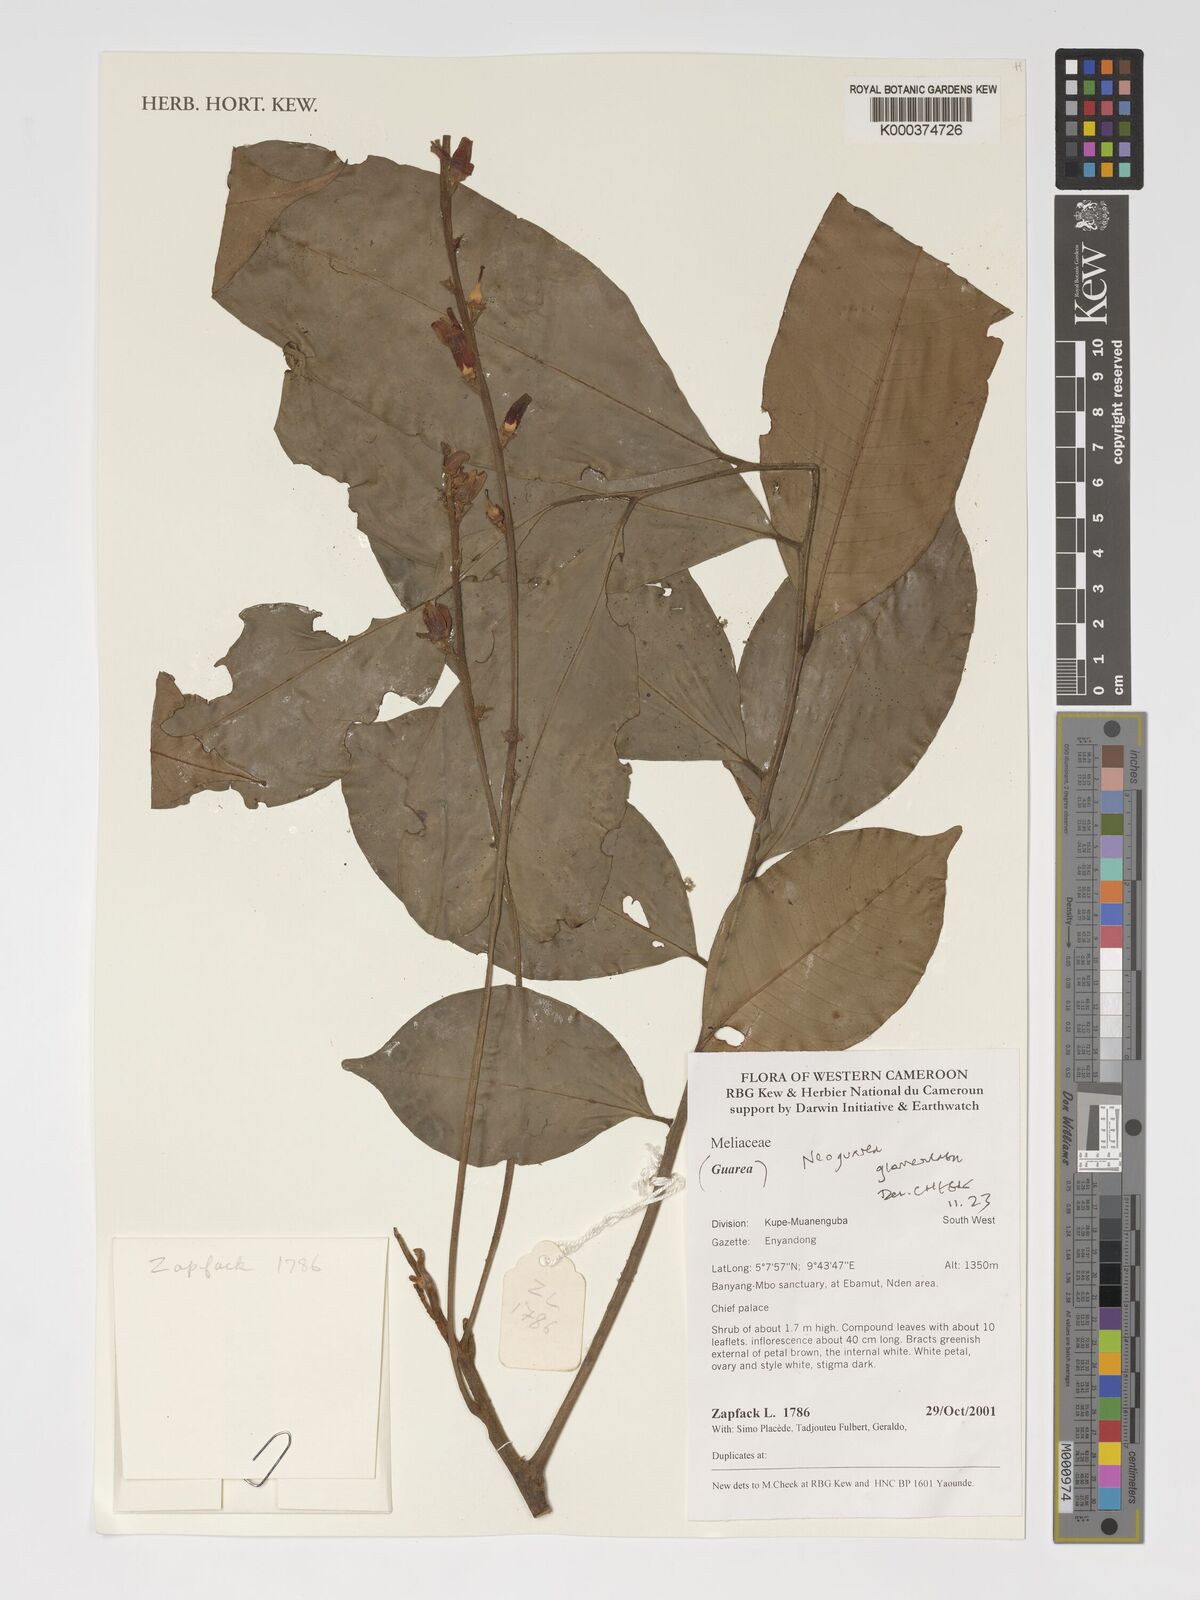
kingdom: Plantae
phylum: Tracheophyta
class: Magnoliopsida
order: Sapindales
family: Meliaceae
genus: Neoguarea
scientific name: Neoguarea glomerulata
